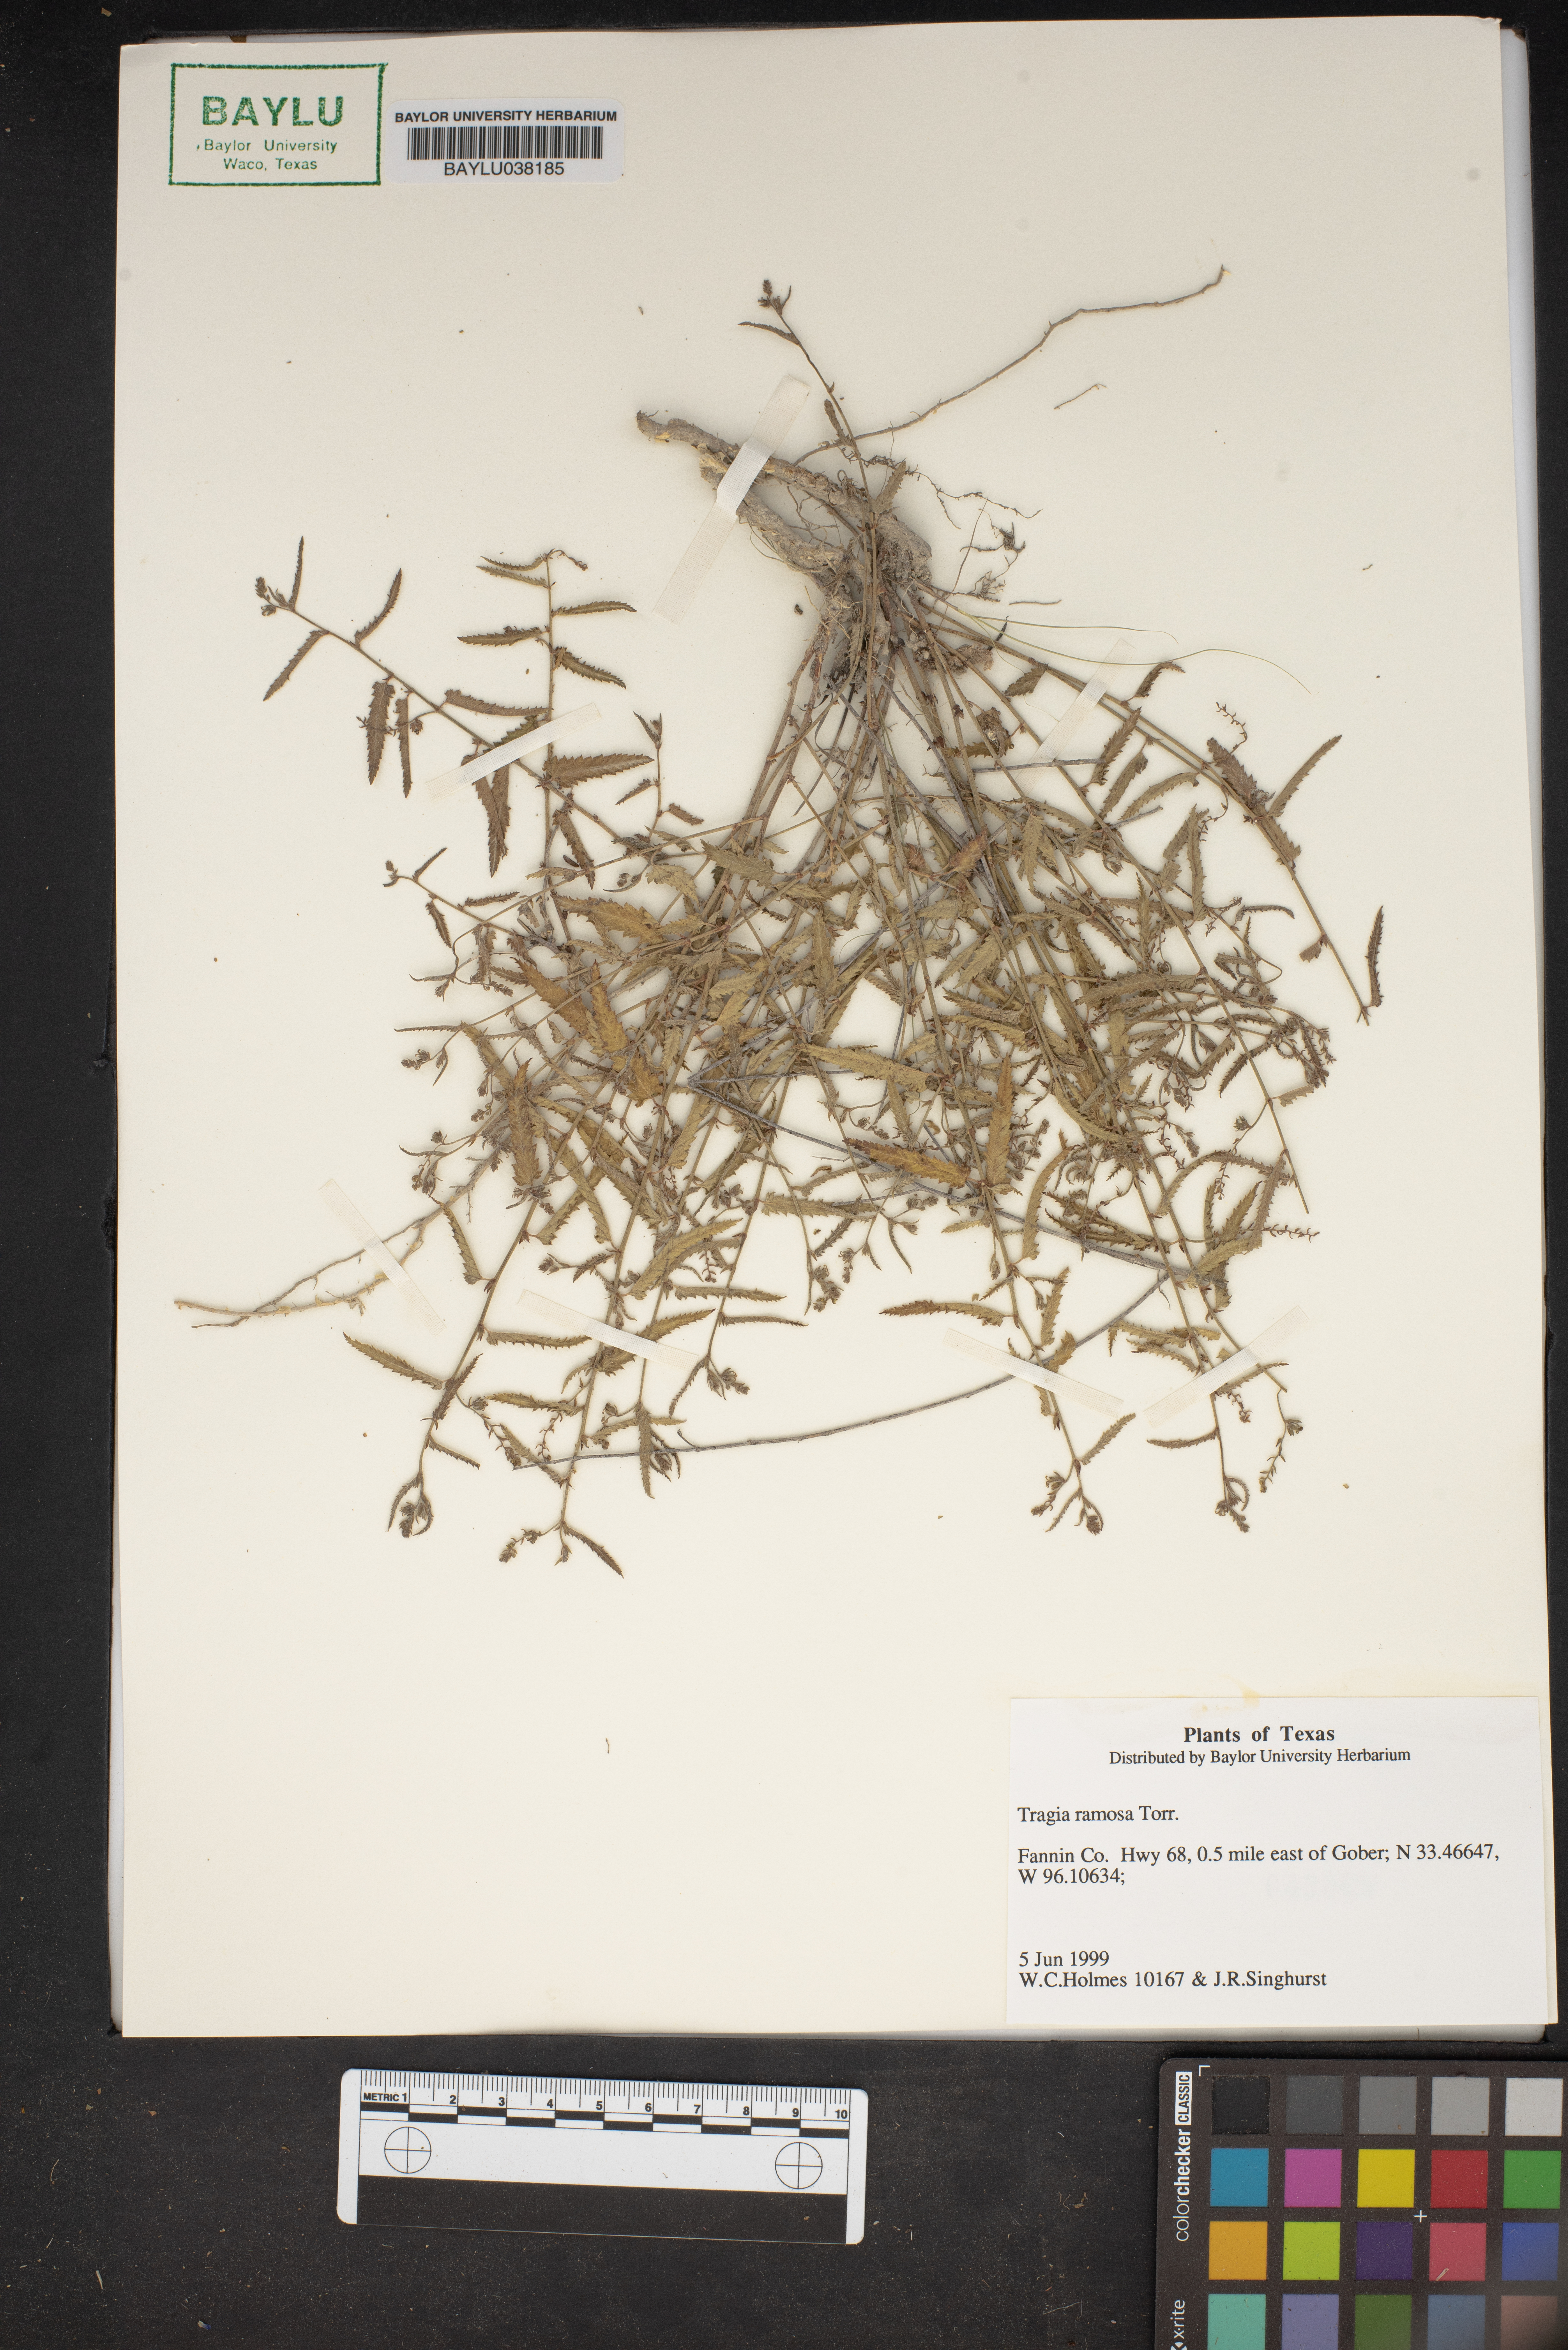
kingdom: Plantae
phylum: Tracheophyta
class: Magnoliopsida
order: Malpighiales
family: Euphorbiaceae
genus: Tragia
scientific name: Tragia ramosa
